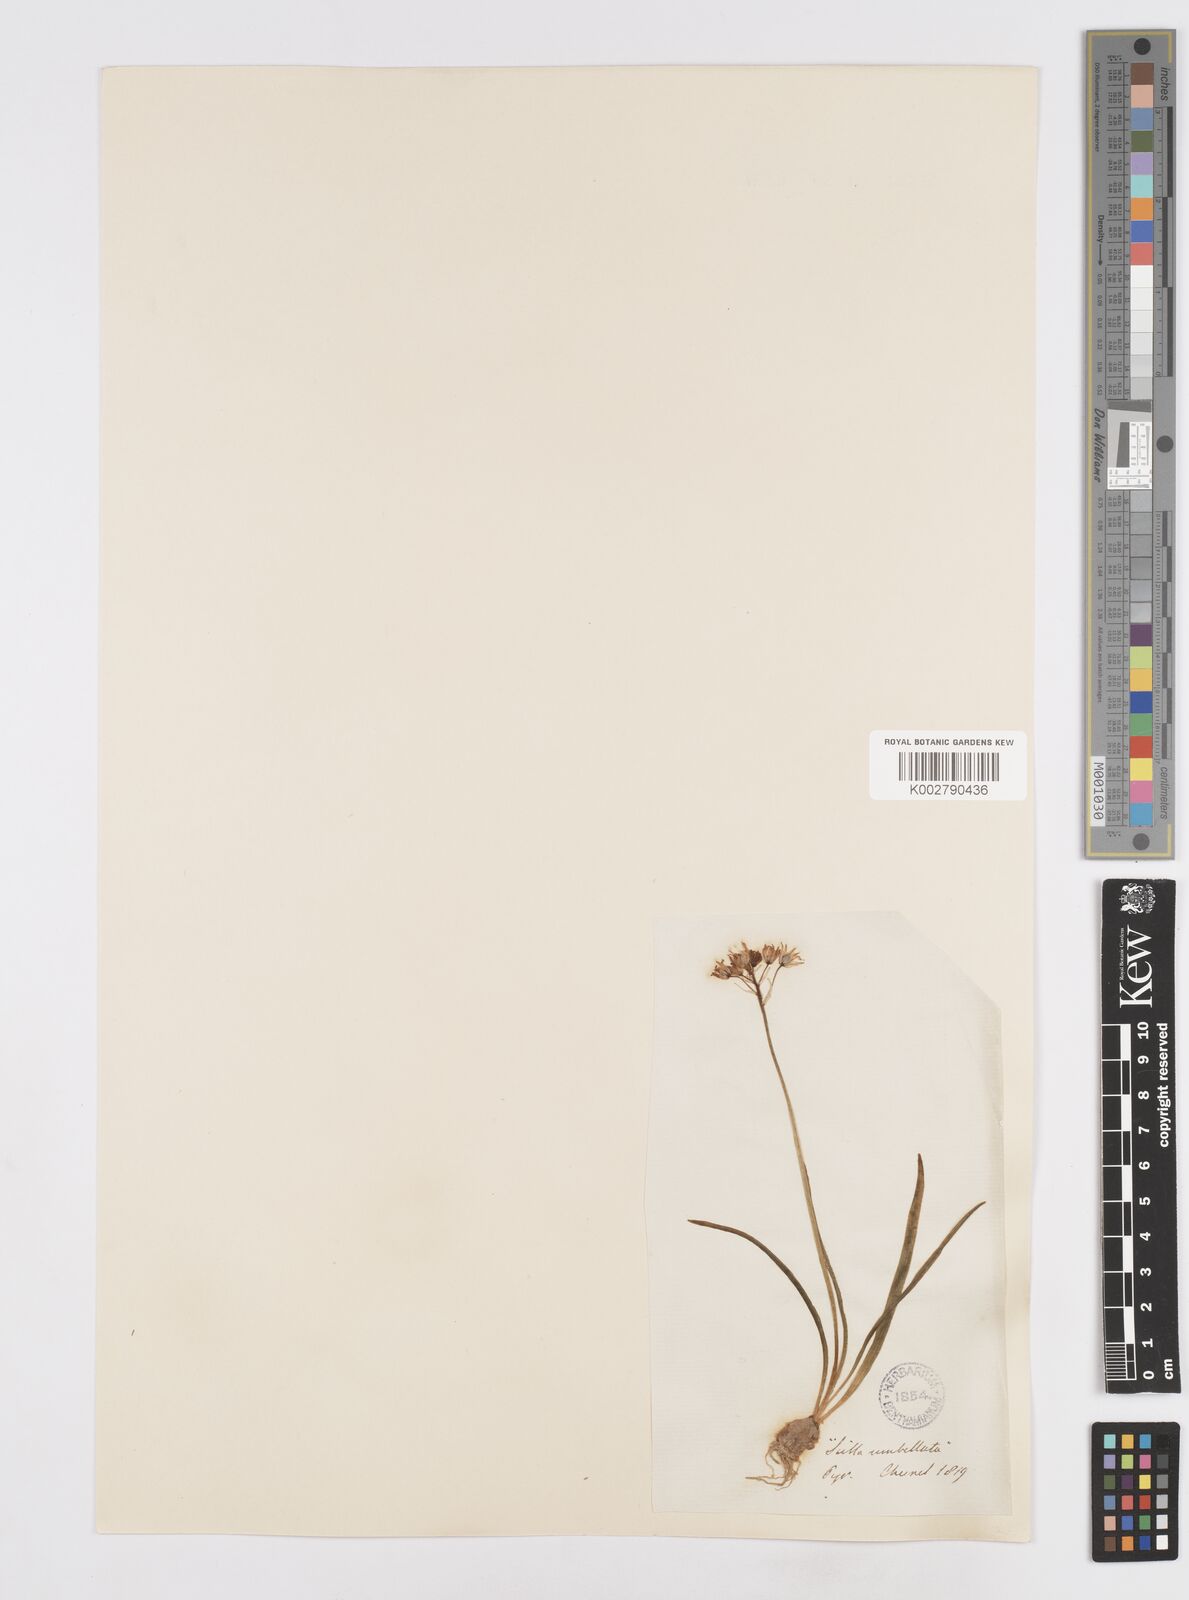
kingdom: Plantae
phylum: Tracheophyta
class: Liliopsida
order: Asparagales
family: Asparagaceae
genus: Scilla
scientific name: Scilla verna
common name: Spring squill
